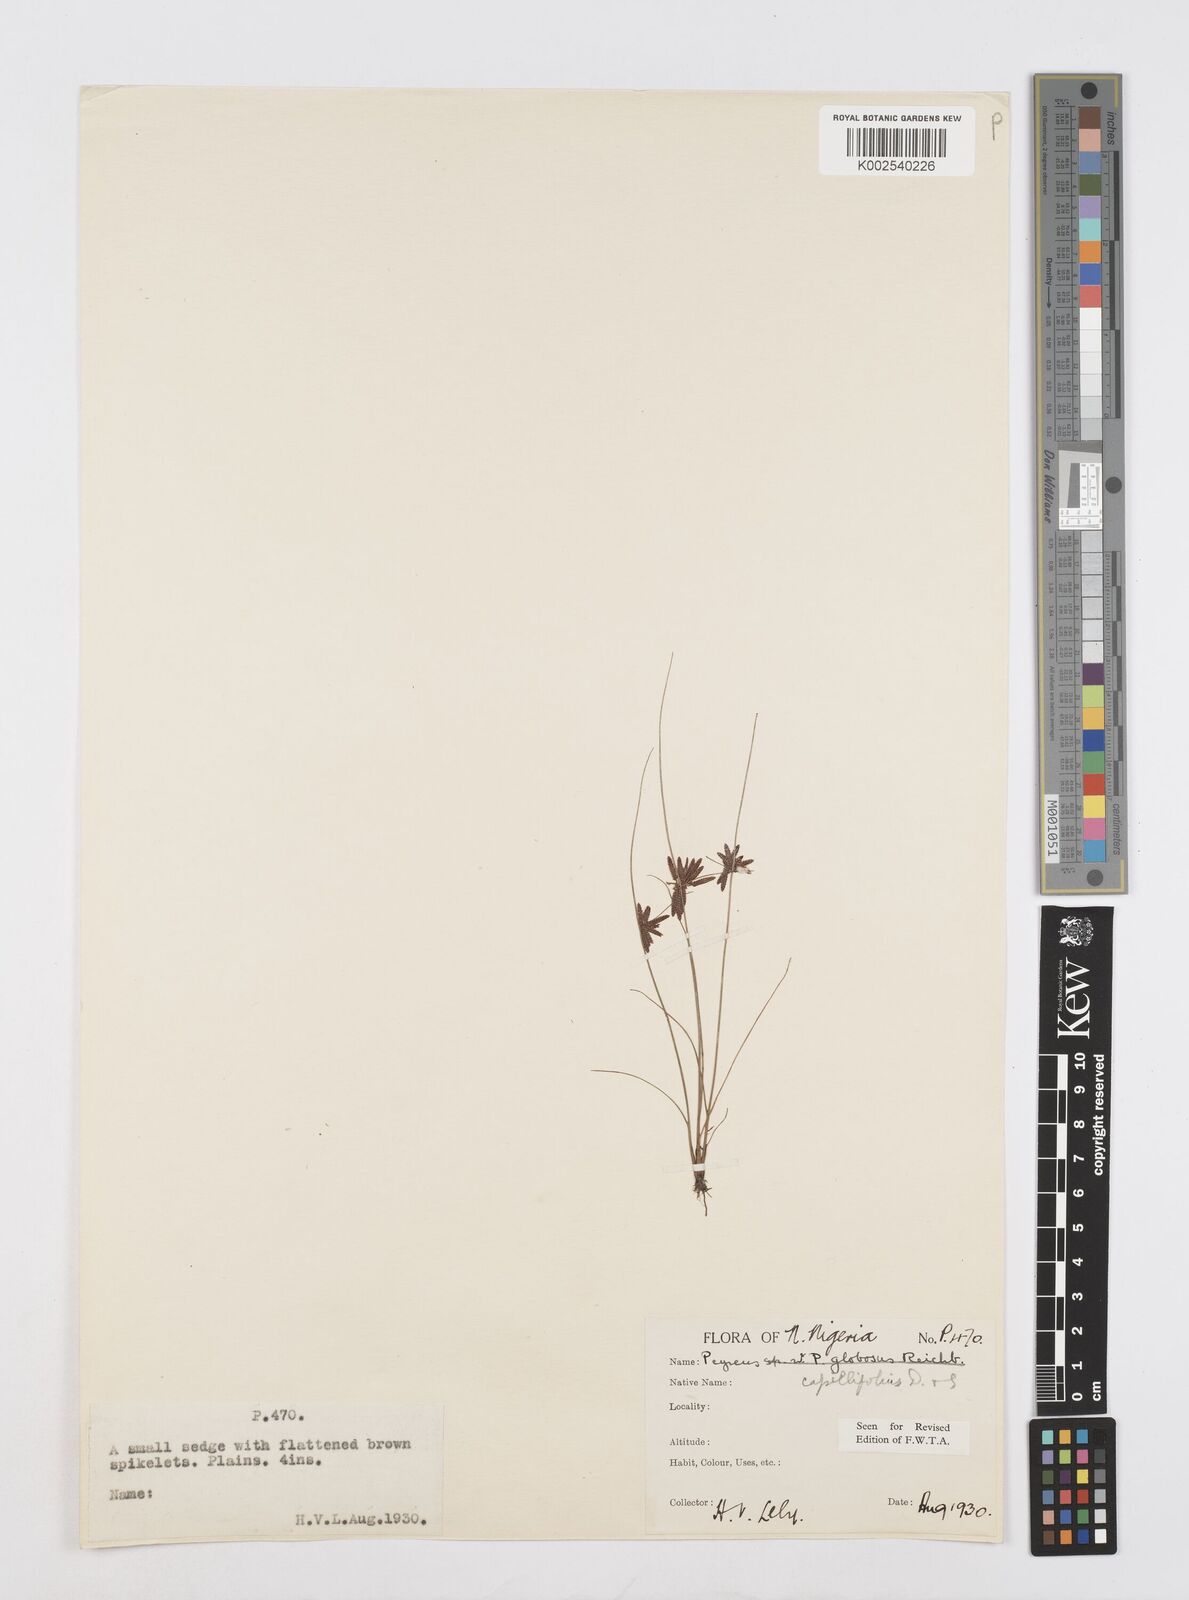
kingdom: Plantae
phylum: Tracheophyta
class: Liliopsida
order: Poales
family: Cyperaceae
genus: Cyperus
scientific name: Cyperus capillifolius
